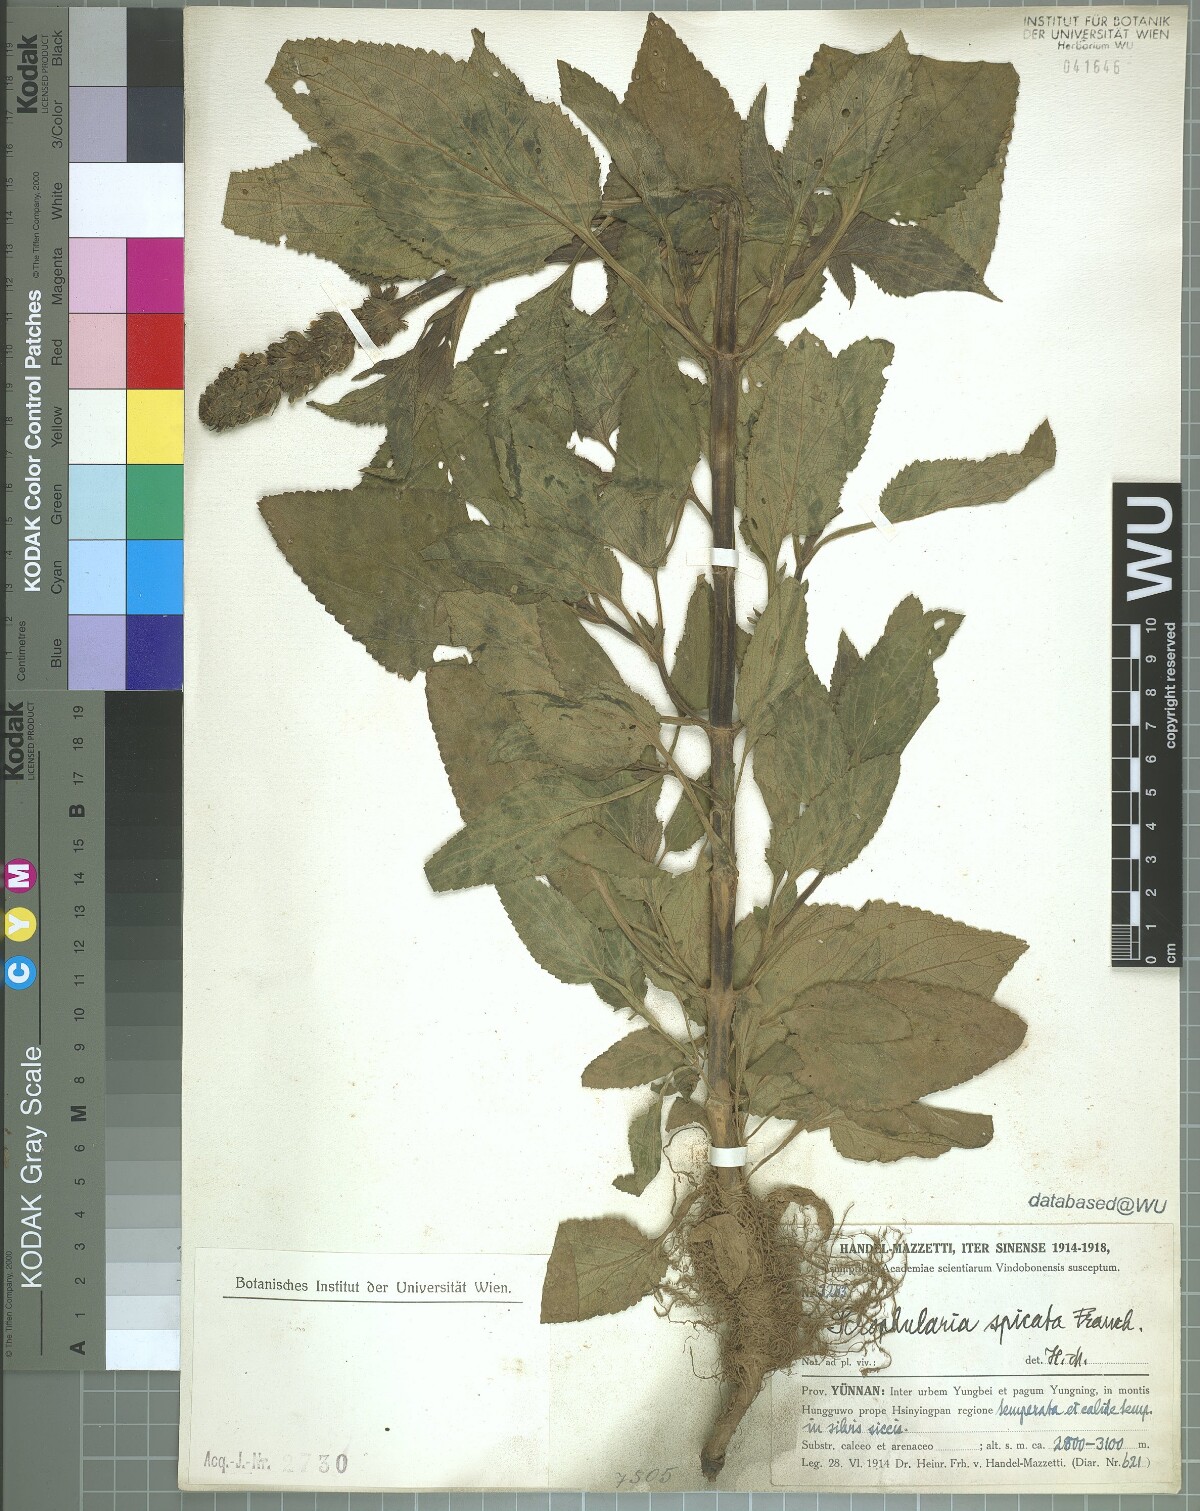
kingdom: Plantae
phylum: Tracheophyta
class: Magnoliopsida
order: Lamiales
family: Scrophulariaceae
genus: Scrophularia
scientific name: Scrophularia spicata
